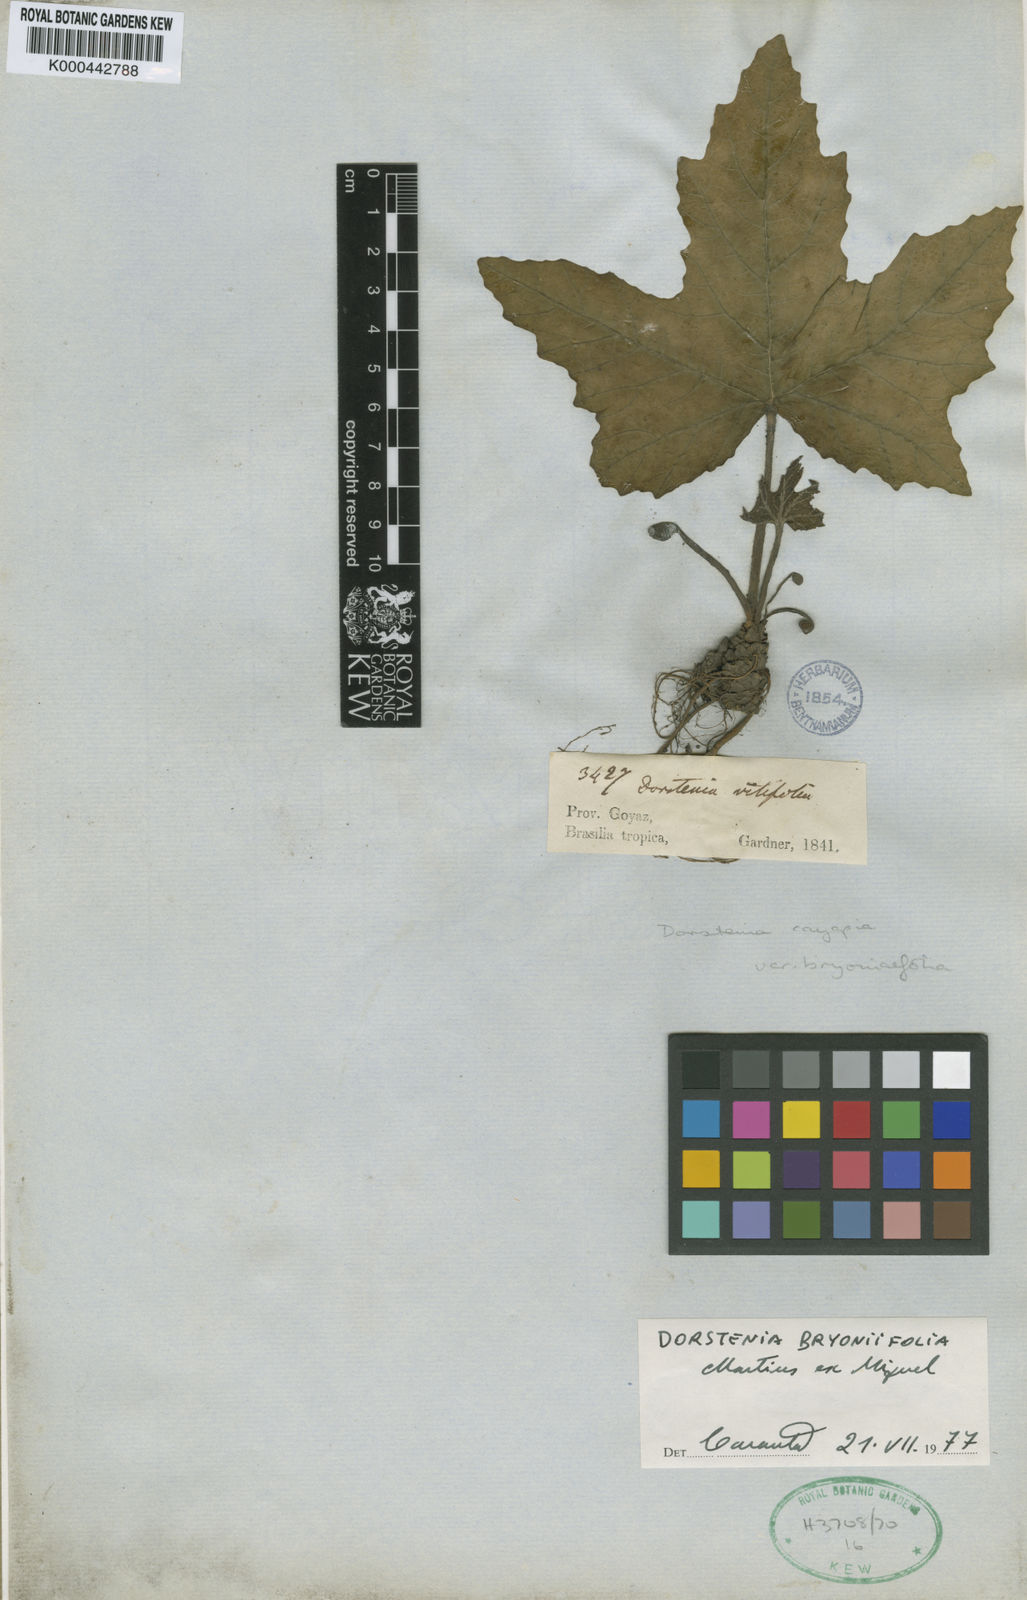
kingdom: Plantae
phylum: Tracheophyta
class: Magnoliopsida
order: Rosales
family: Moraceae
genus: Dorstenia
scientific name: Dorstenia cayapia
